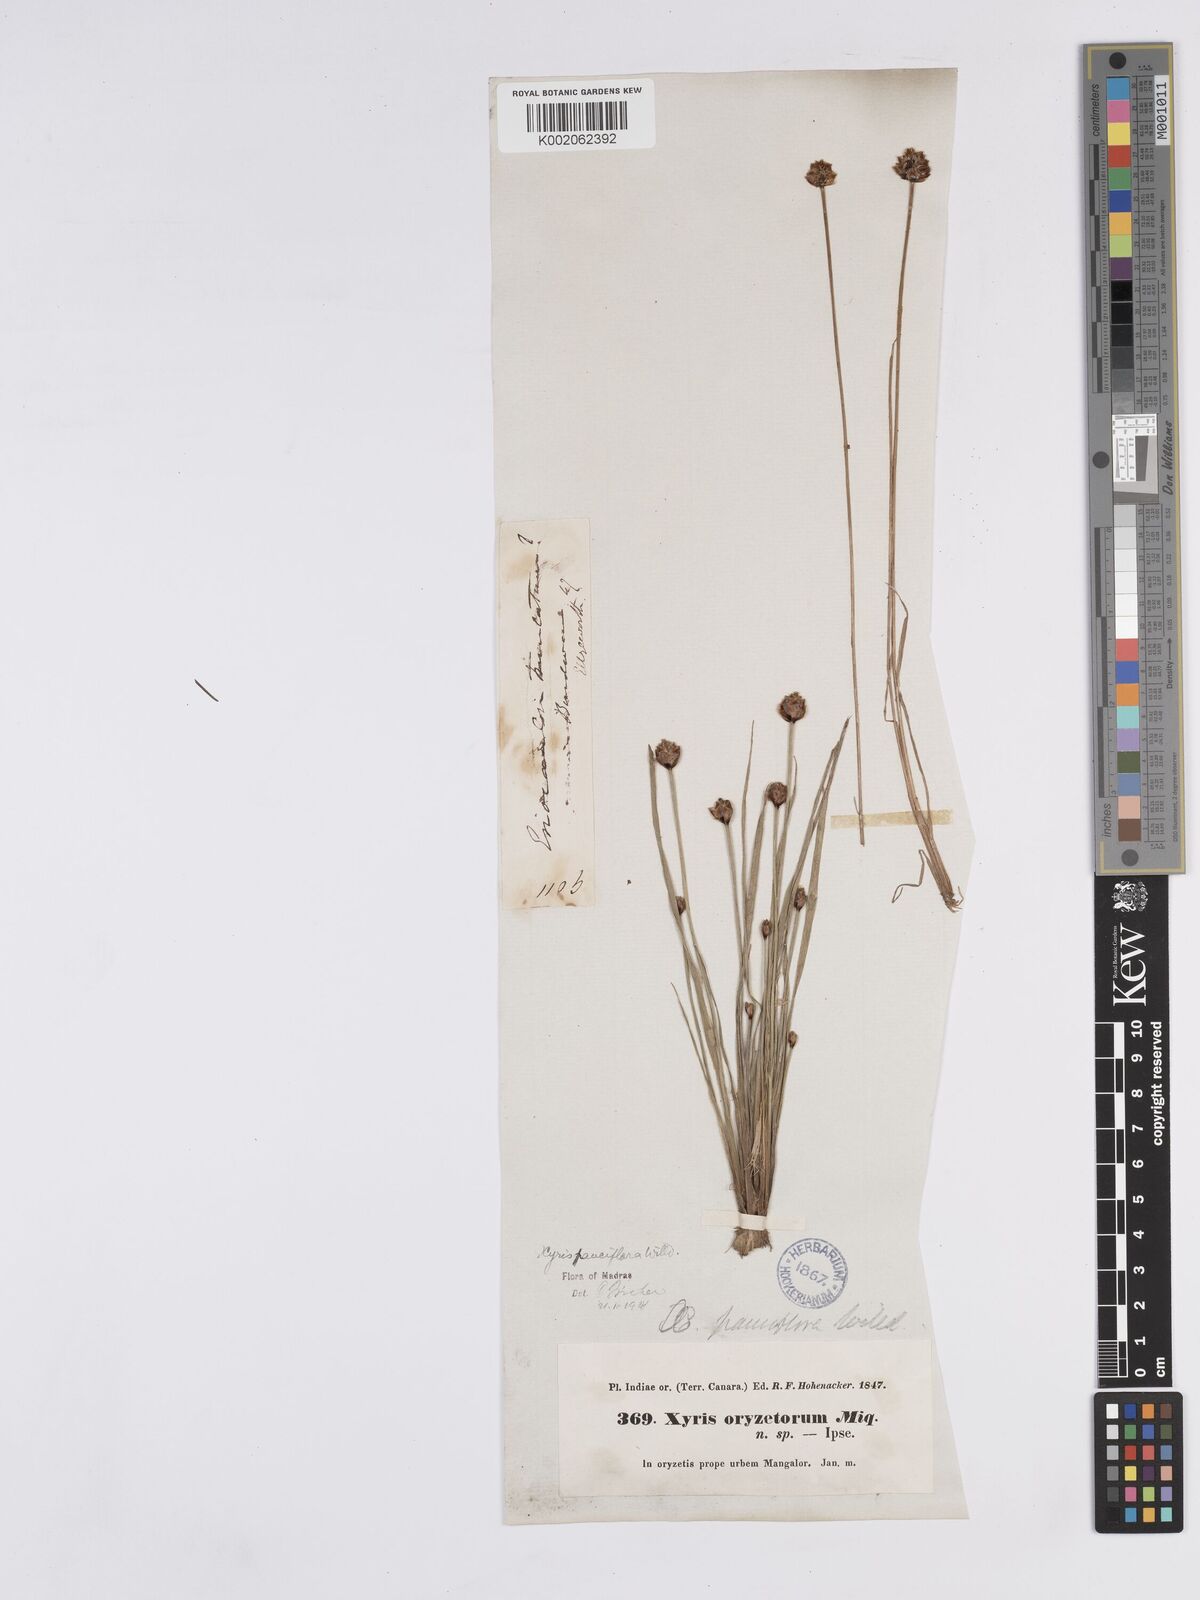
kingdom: Plantae
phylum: Tracheophyta
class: Liliopsida
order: Poales
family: Xyridaceae
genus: Xyris
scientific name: Xyris pauciflora
